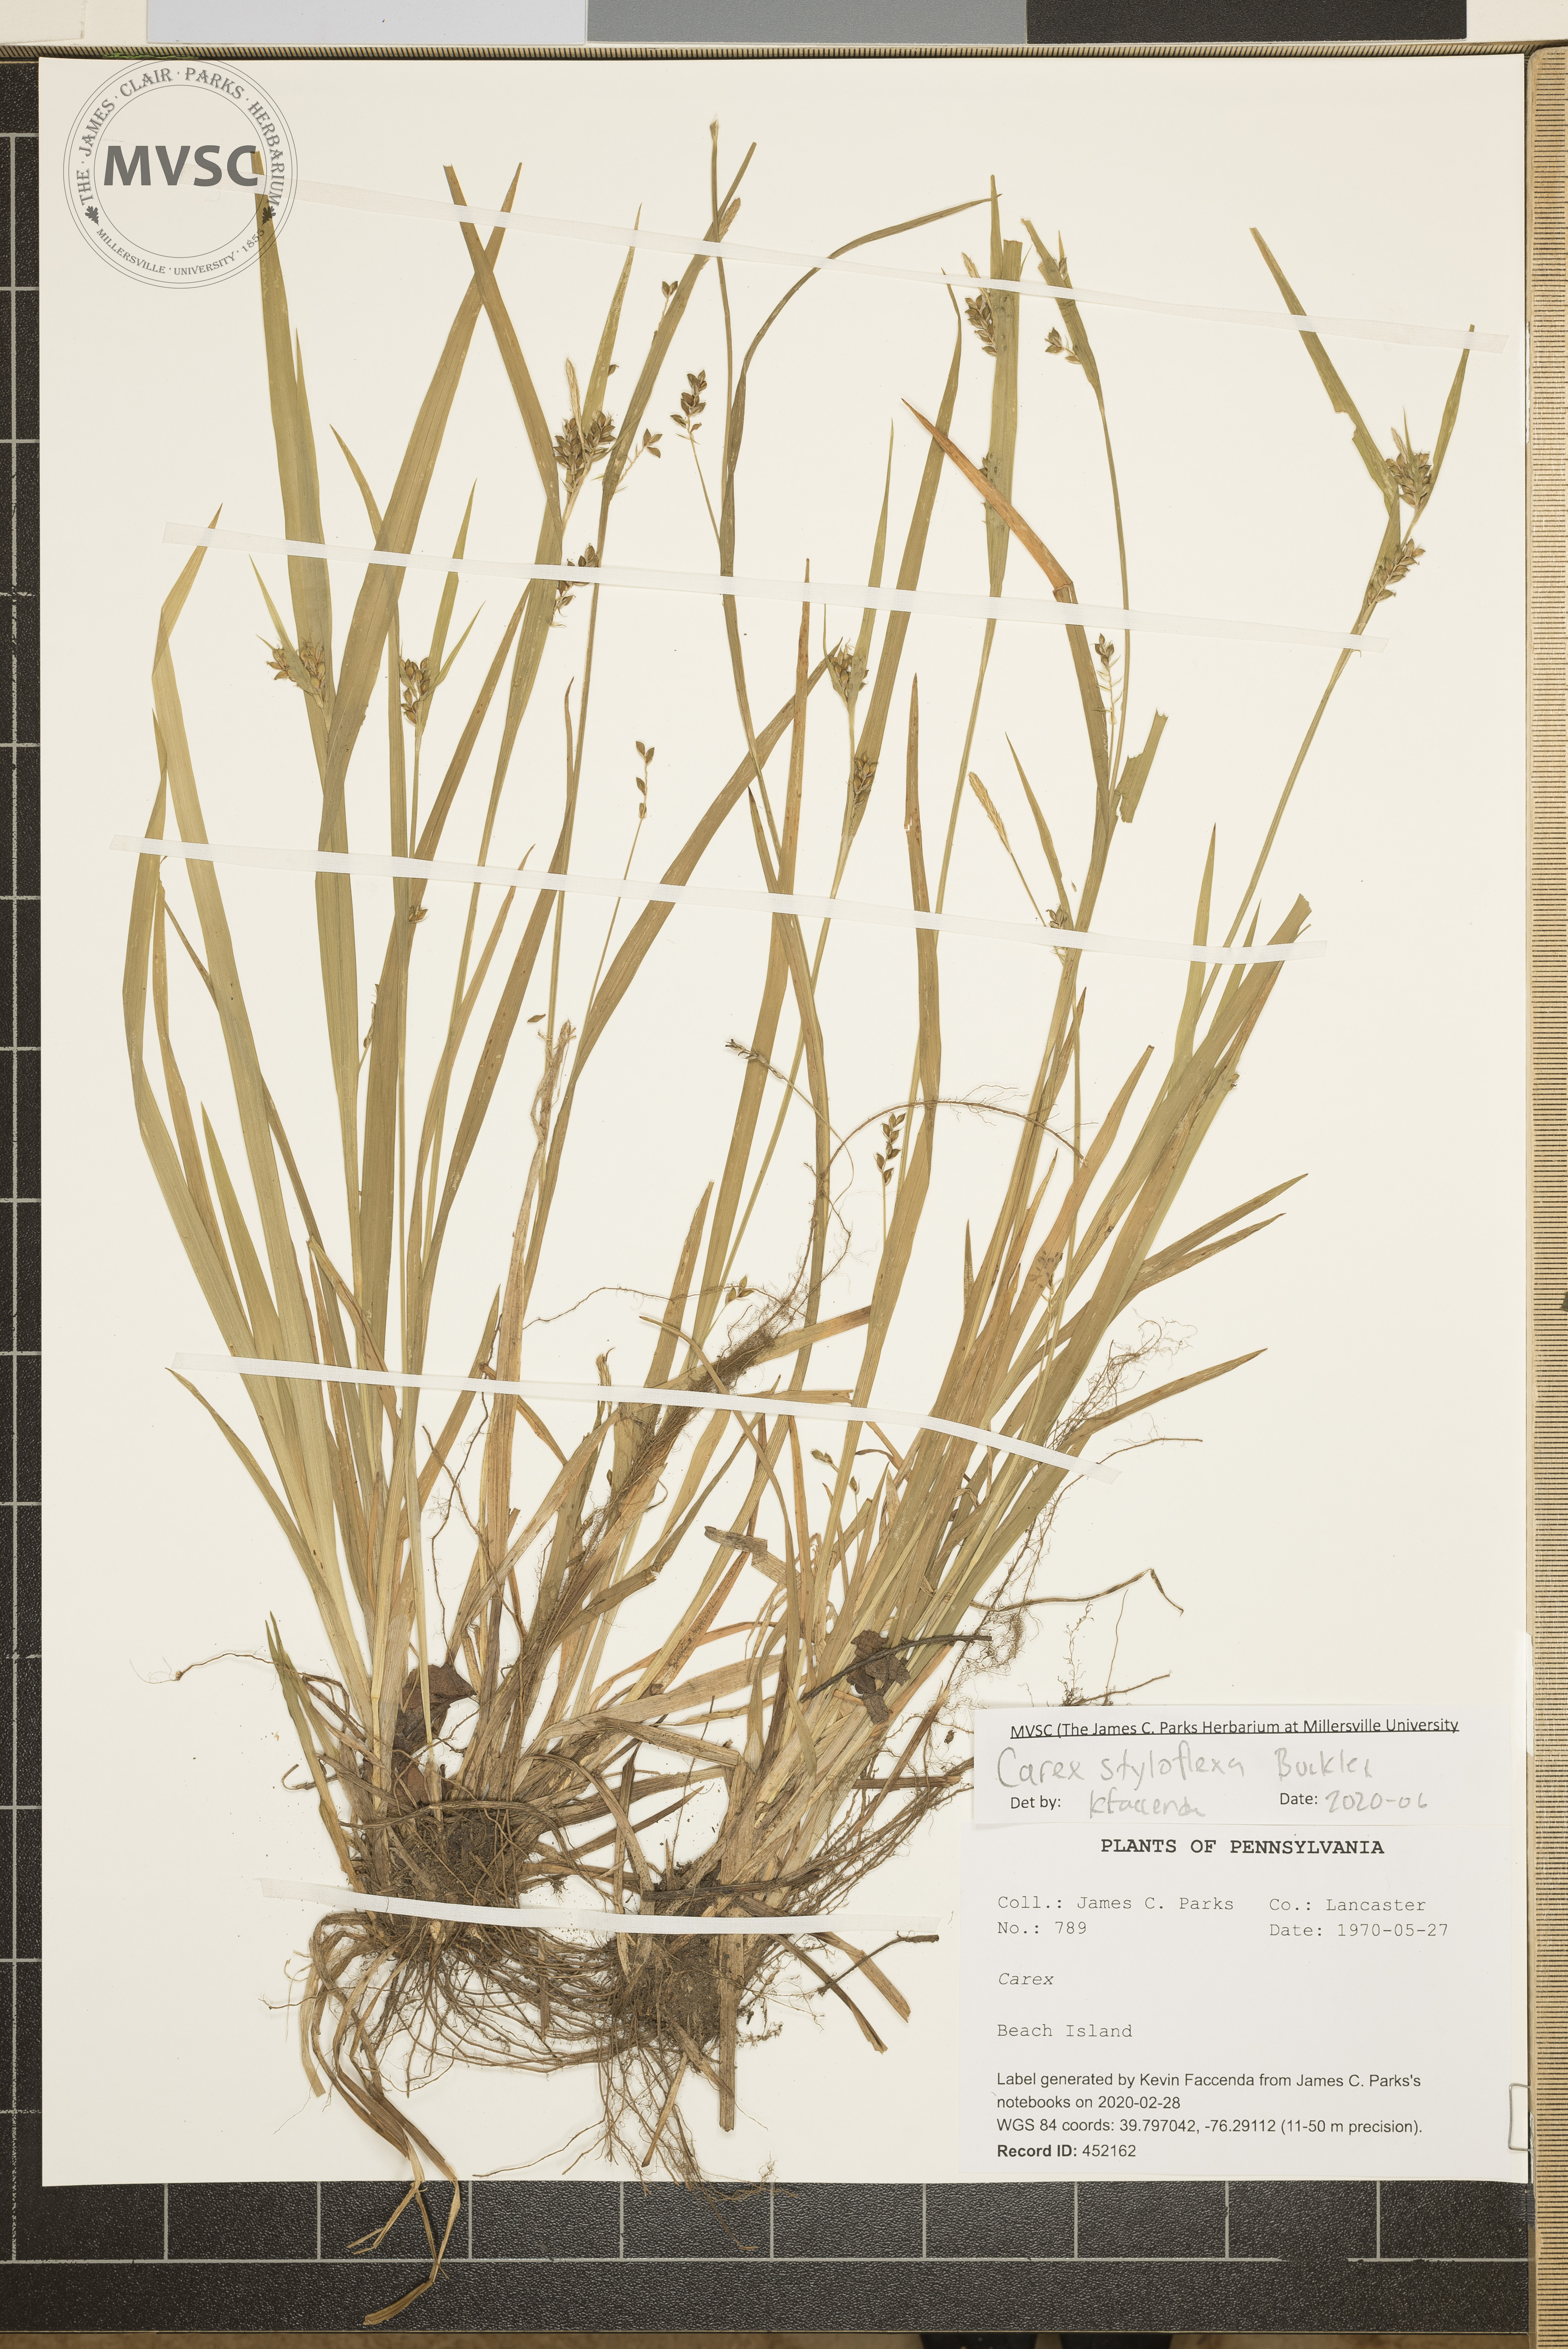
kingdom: Plantae
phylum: Tracheophyta
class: Liliopsida
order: Poales
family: Cyperaceae
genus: Carex
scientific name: Carex styloflexa
